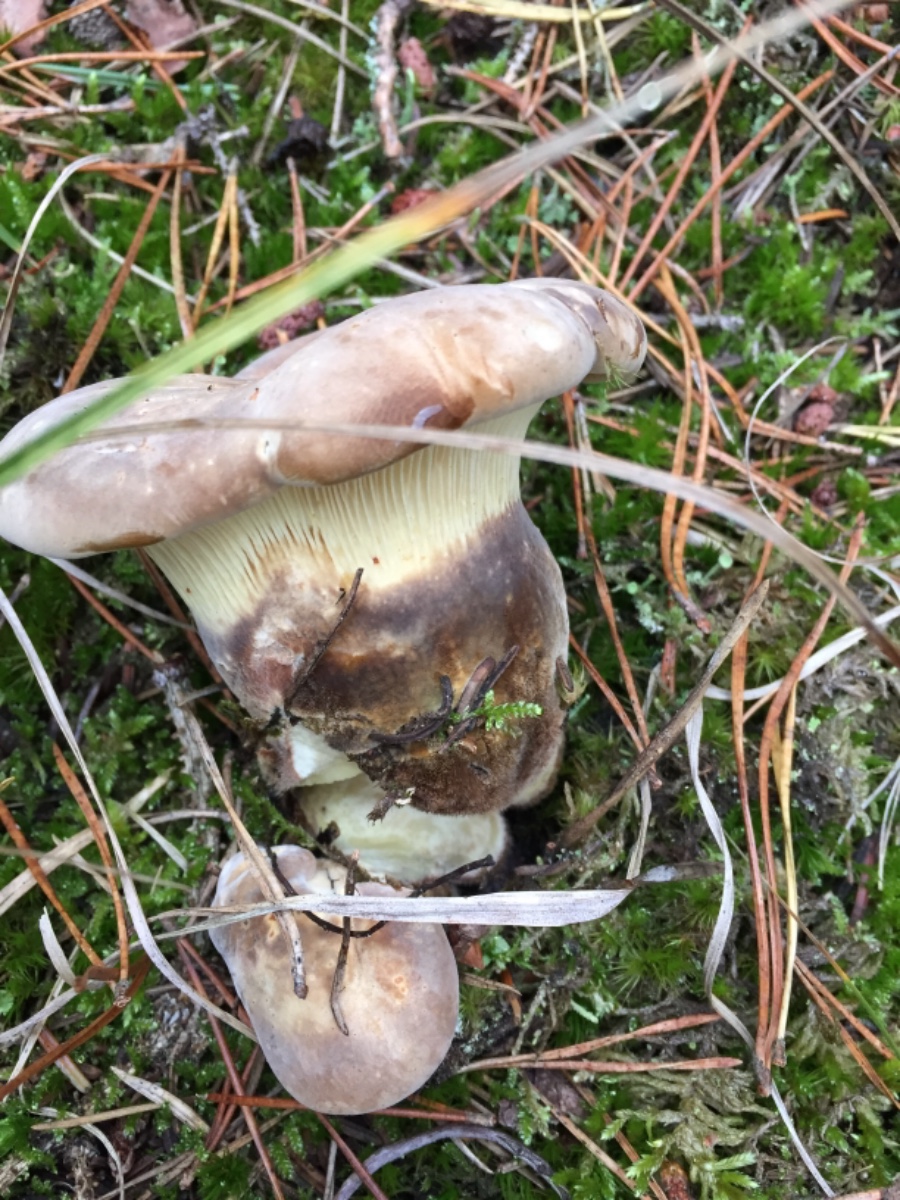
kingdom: Fungi
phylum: Basidiomycota
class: Agaricomycetes
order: Boletales
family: Tapinellaceae
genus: Tapinella
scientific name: Tapinella atrotomentosa
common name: sortfiltet viftesvamp
